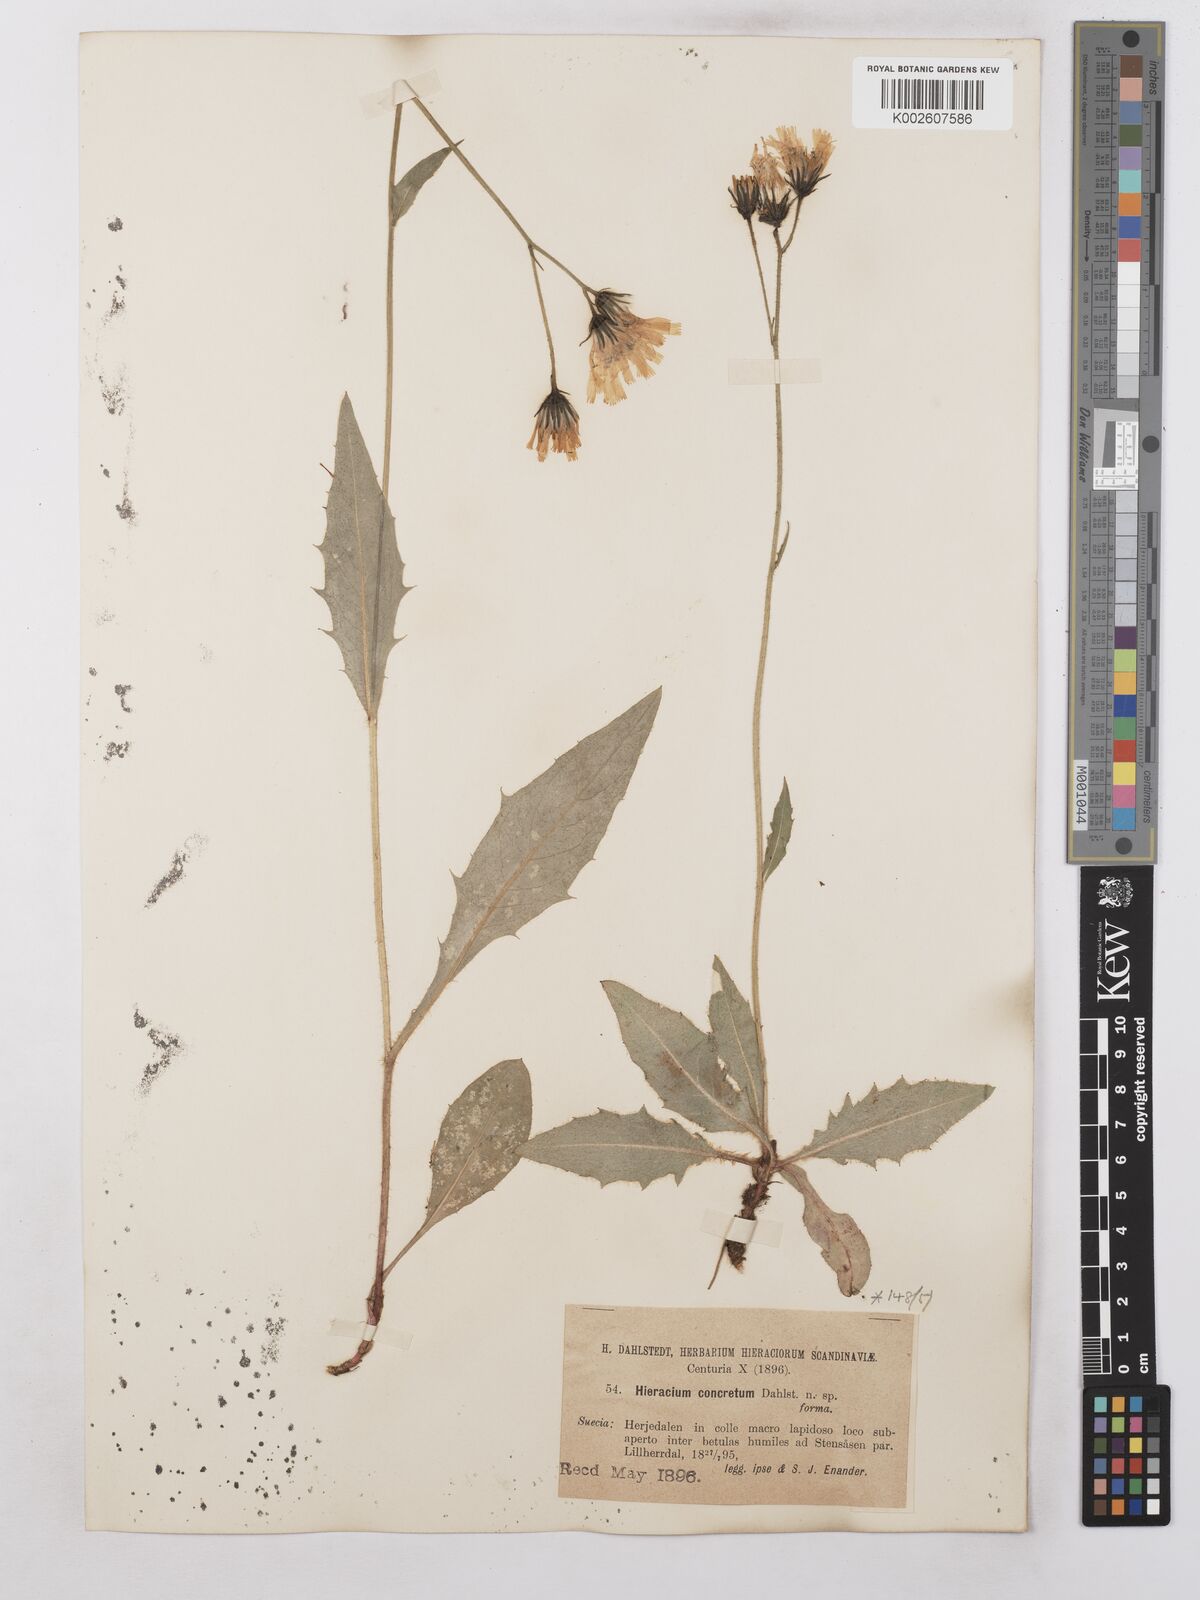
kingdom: Plantae
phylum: Tracheophyta
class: Magnoliopsida
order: Asterales
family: Asteraceae
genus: Hieracium
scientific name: Hieracium concretum
